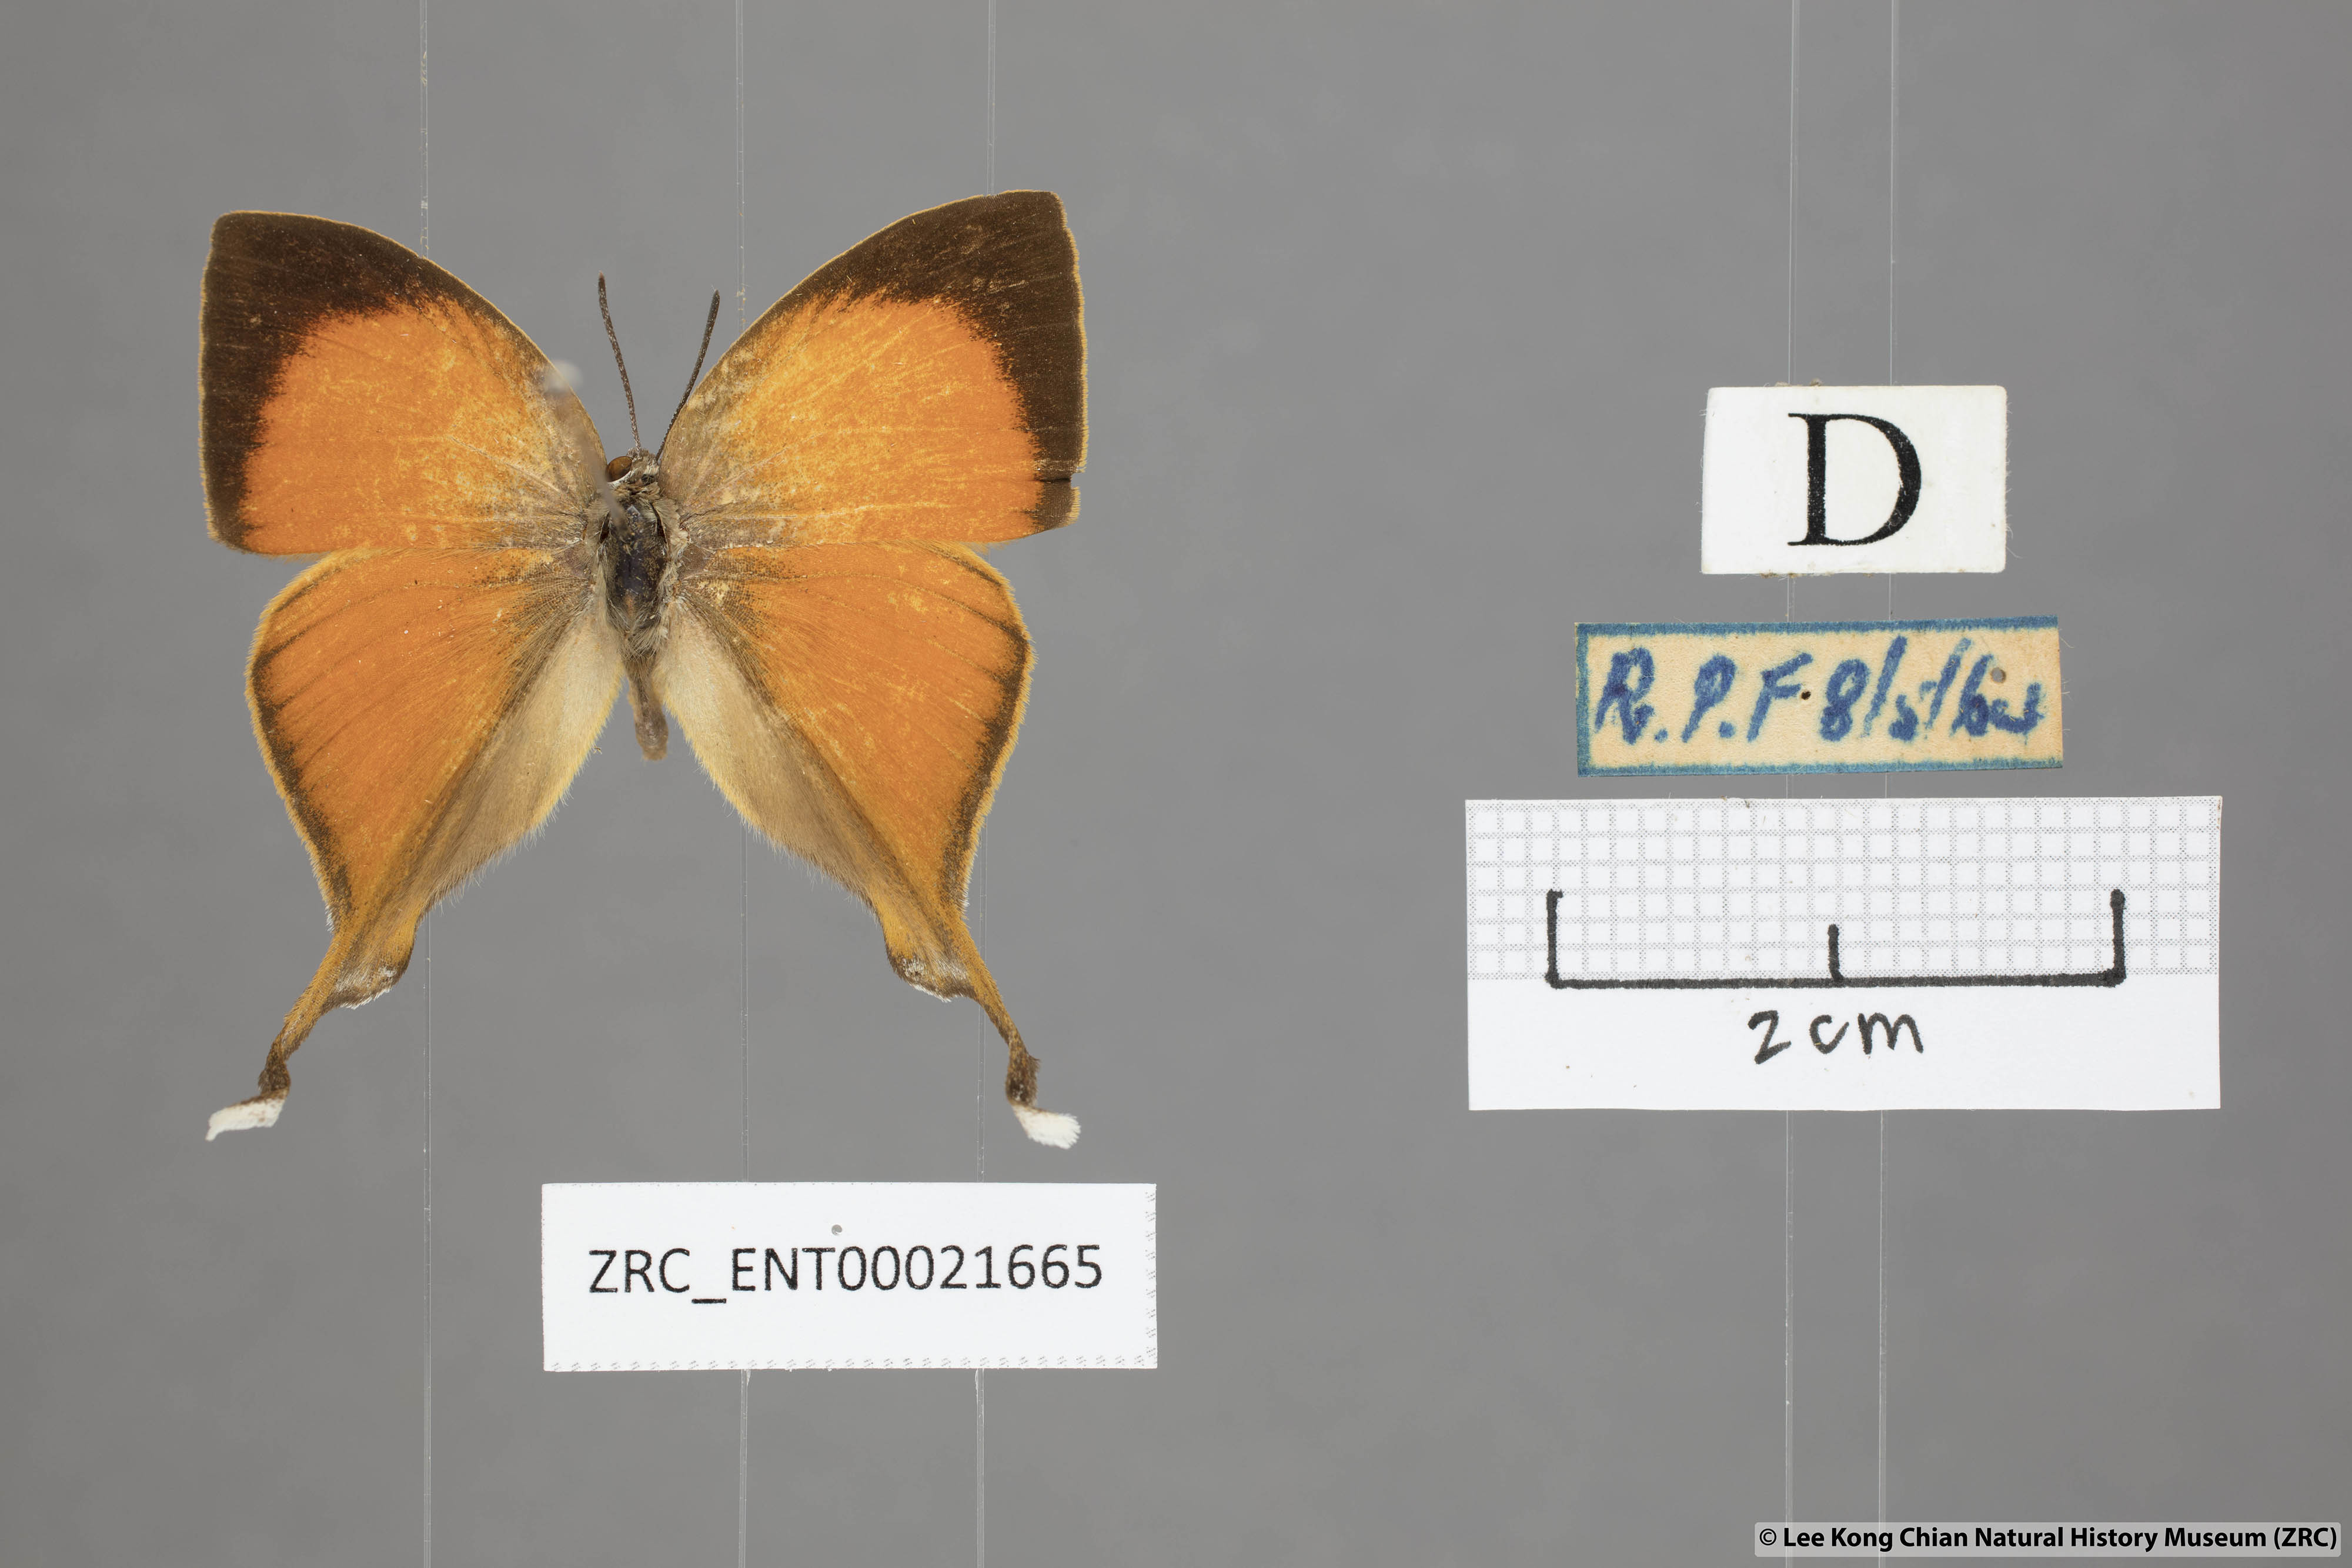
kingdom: Animalia
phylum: Arthropoda
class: Insecta
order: Lepidoptera
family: Lycaenidae
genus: Loxura
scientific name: Loxura atymnus
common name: Common yamfly
